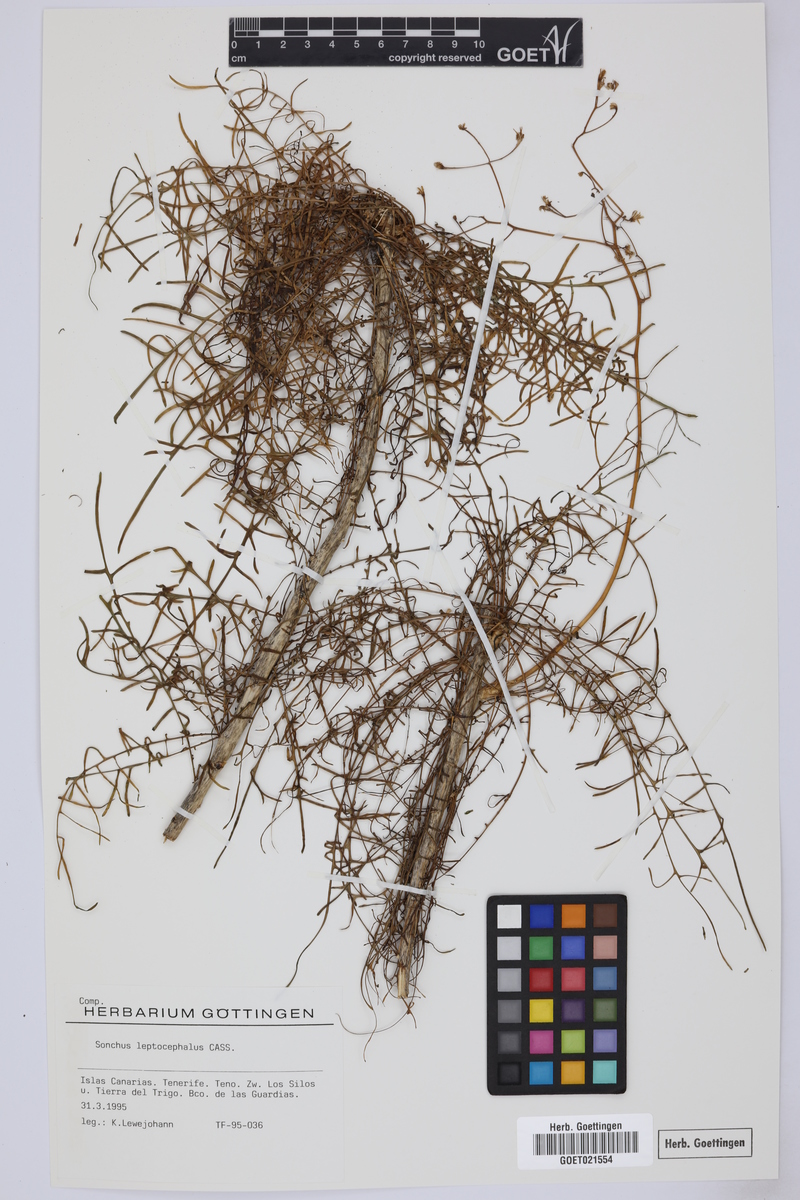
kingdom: Plantae
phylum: Tracheophyta
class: Magnoliopsida
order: Asterales
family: Asteraceae
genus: Sonchus
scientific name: Sonchus leptocephalus
